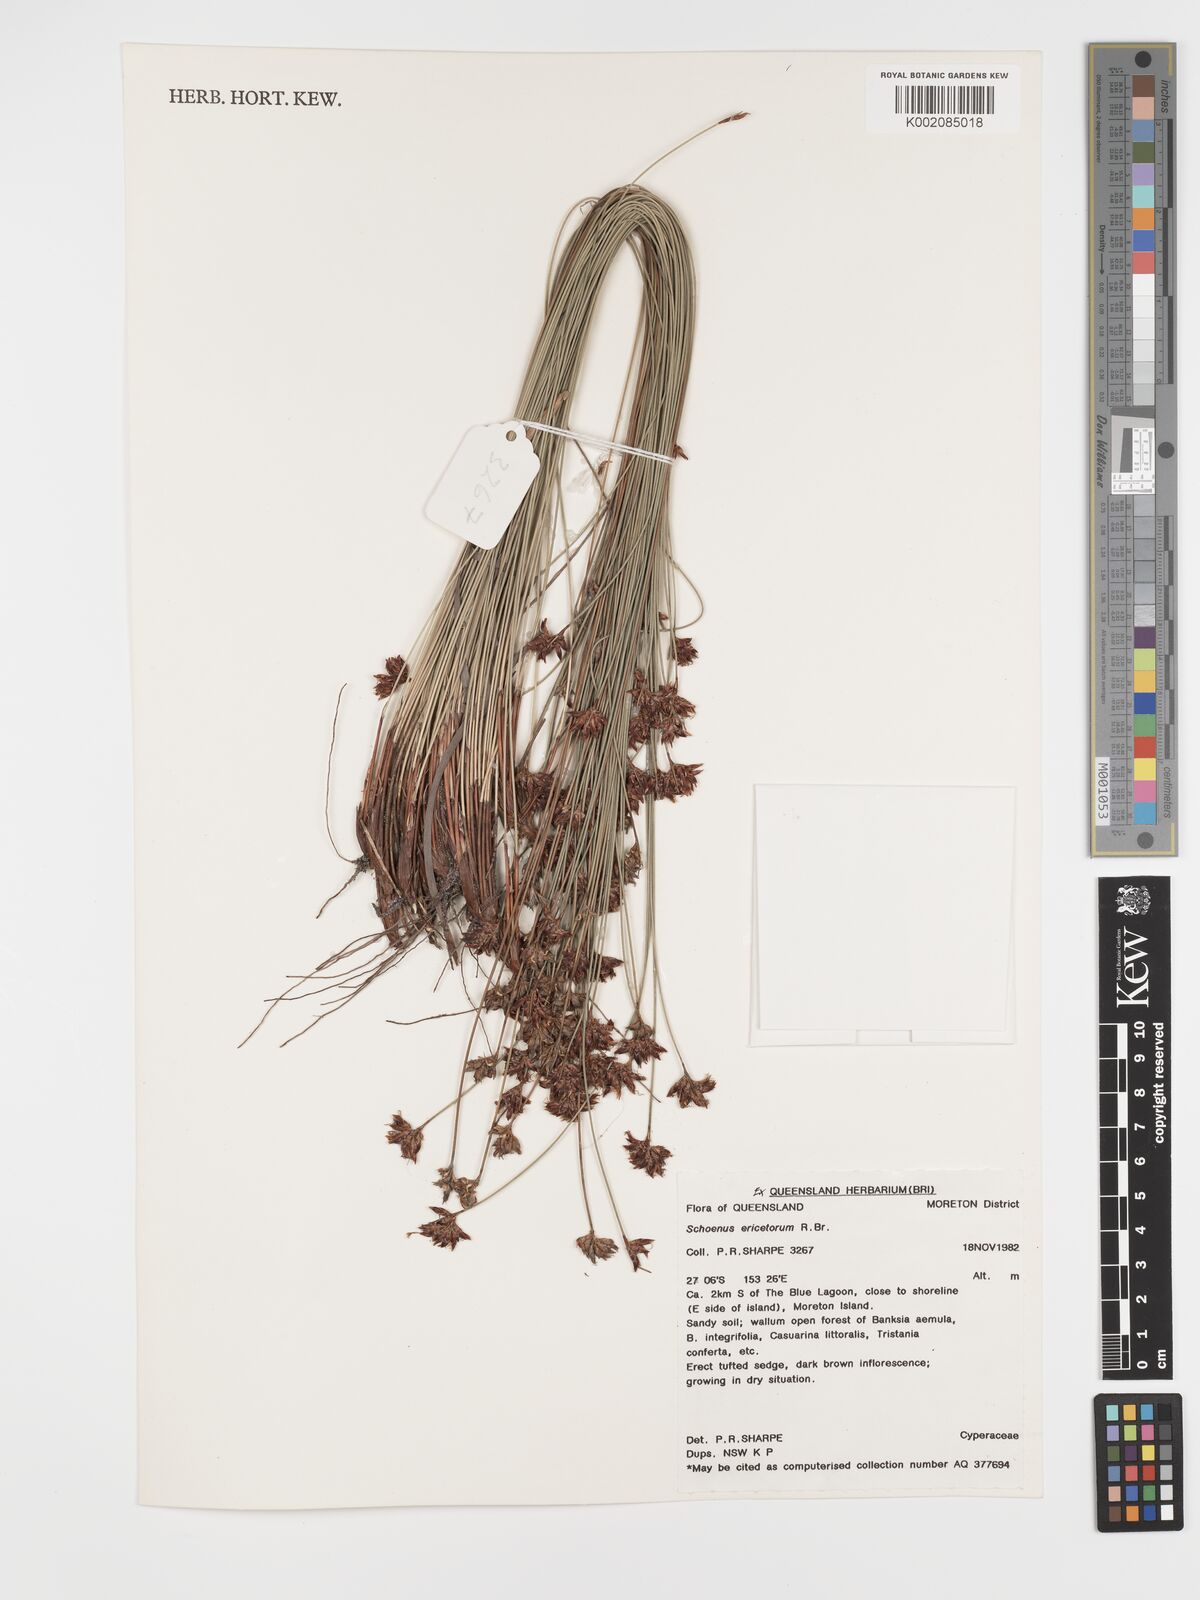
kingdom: Plantae
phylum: Tracheophyta
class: Liliopsida
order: Poales
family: Cyperaceae
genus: Schoenus
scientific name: Schoenus ericetorum
